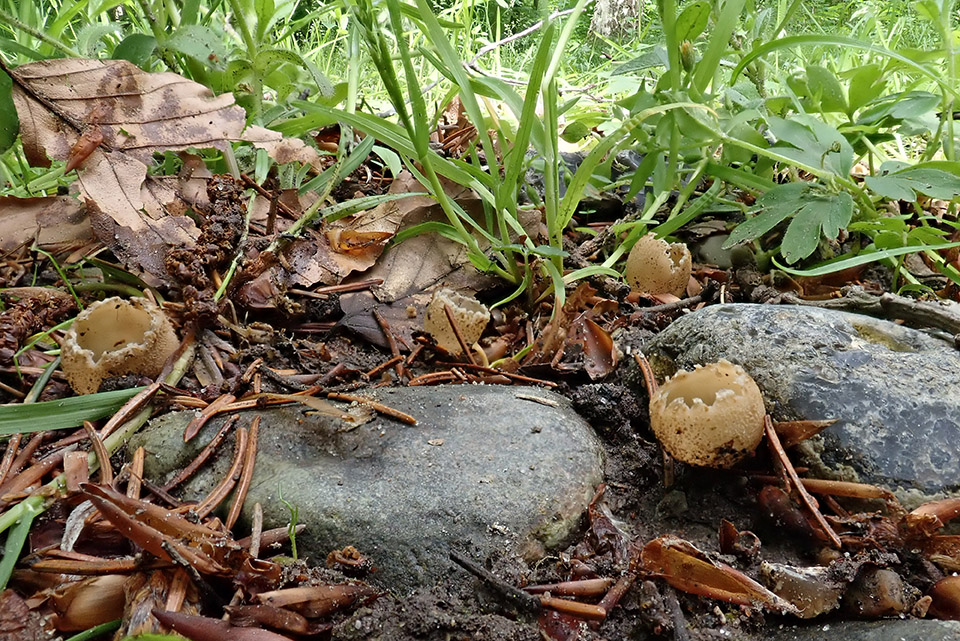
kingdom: Fungi
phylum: Ascomycota
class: Pezizomycetes
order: Pezizales
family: Pyronemataceae
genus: Tarzetta
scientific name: Tarzetta cupularis
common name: gulbrun pokalbæger
